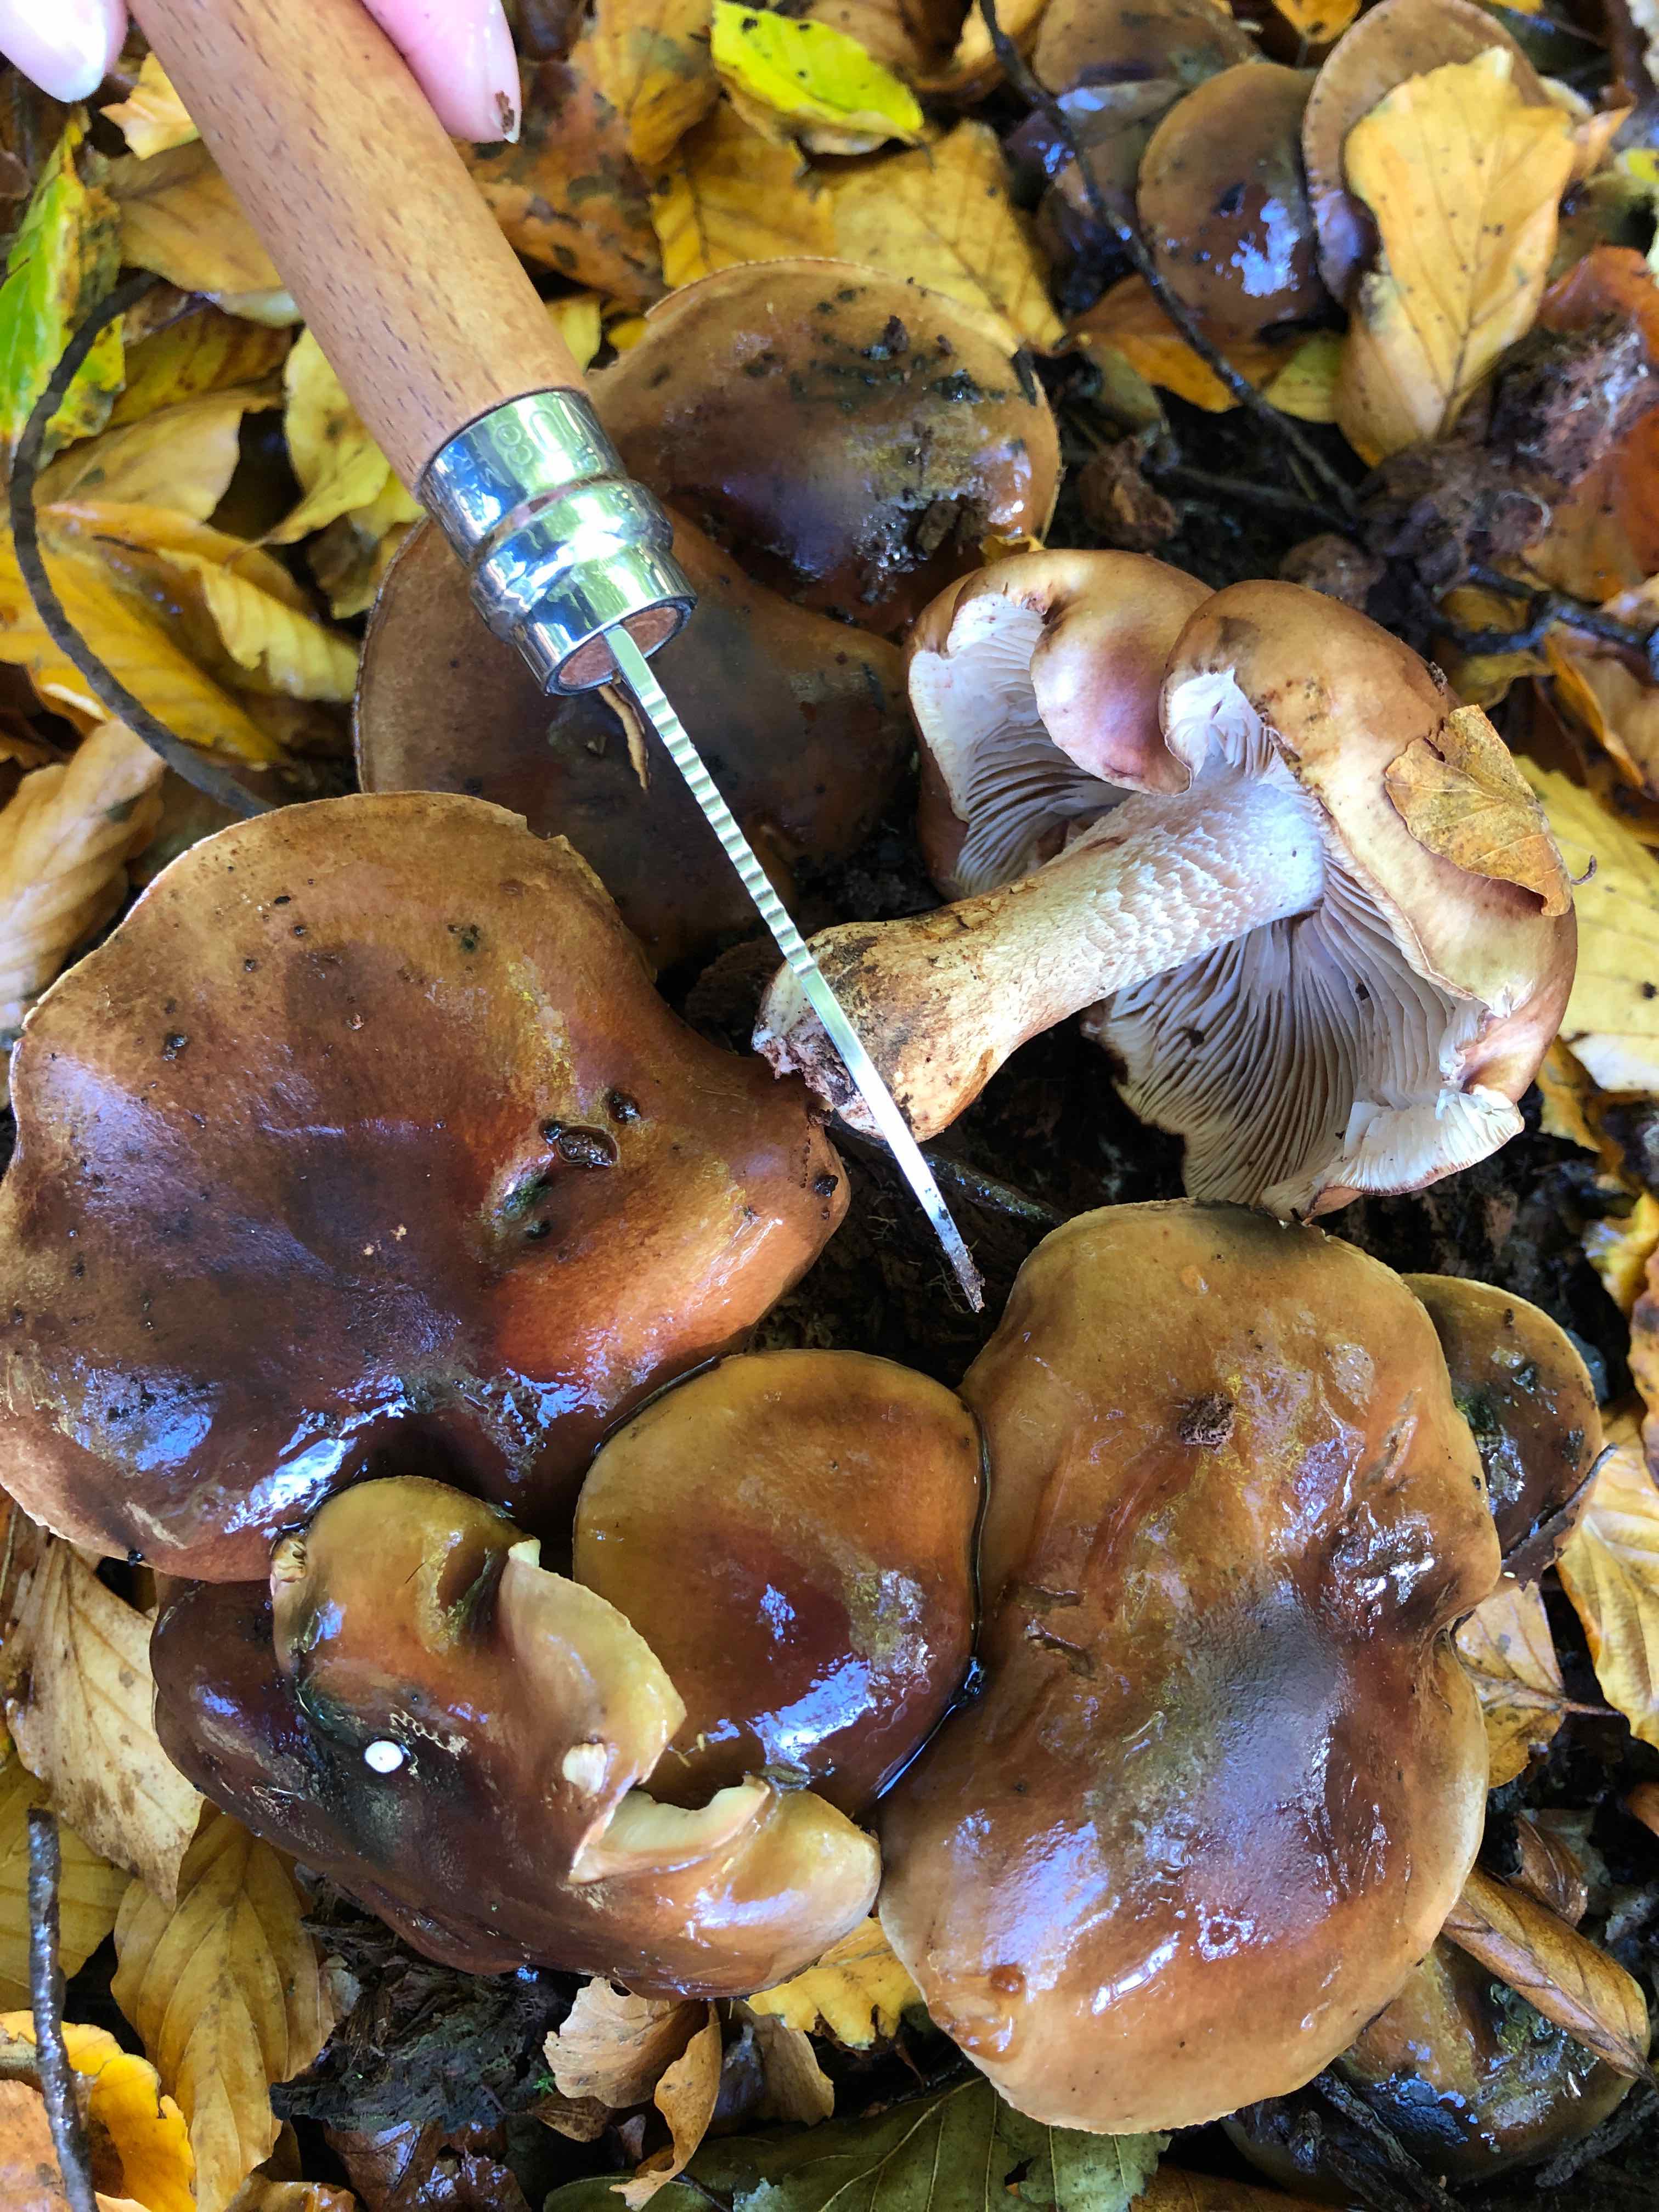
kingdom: Fungi
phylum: Basidiomycota
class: Agaricomycetes
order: Agaricales
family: Tricholomataceae
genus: Tricholoma
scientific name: Tricholoma ustale
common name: sveden ridderhat
